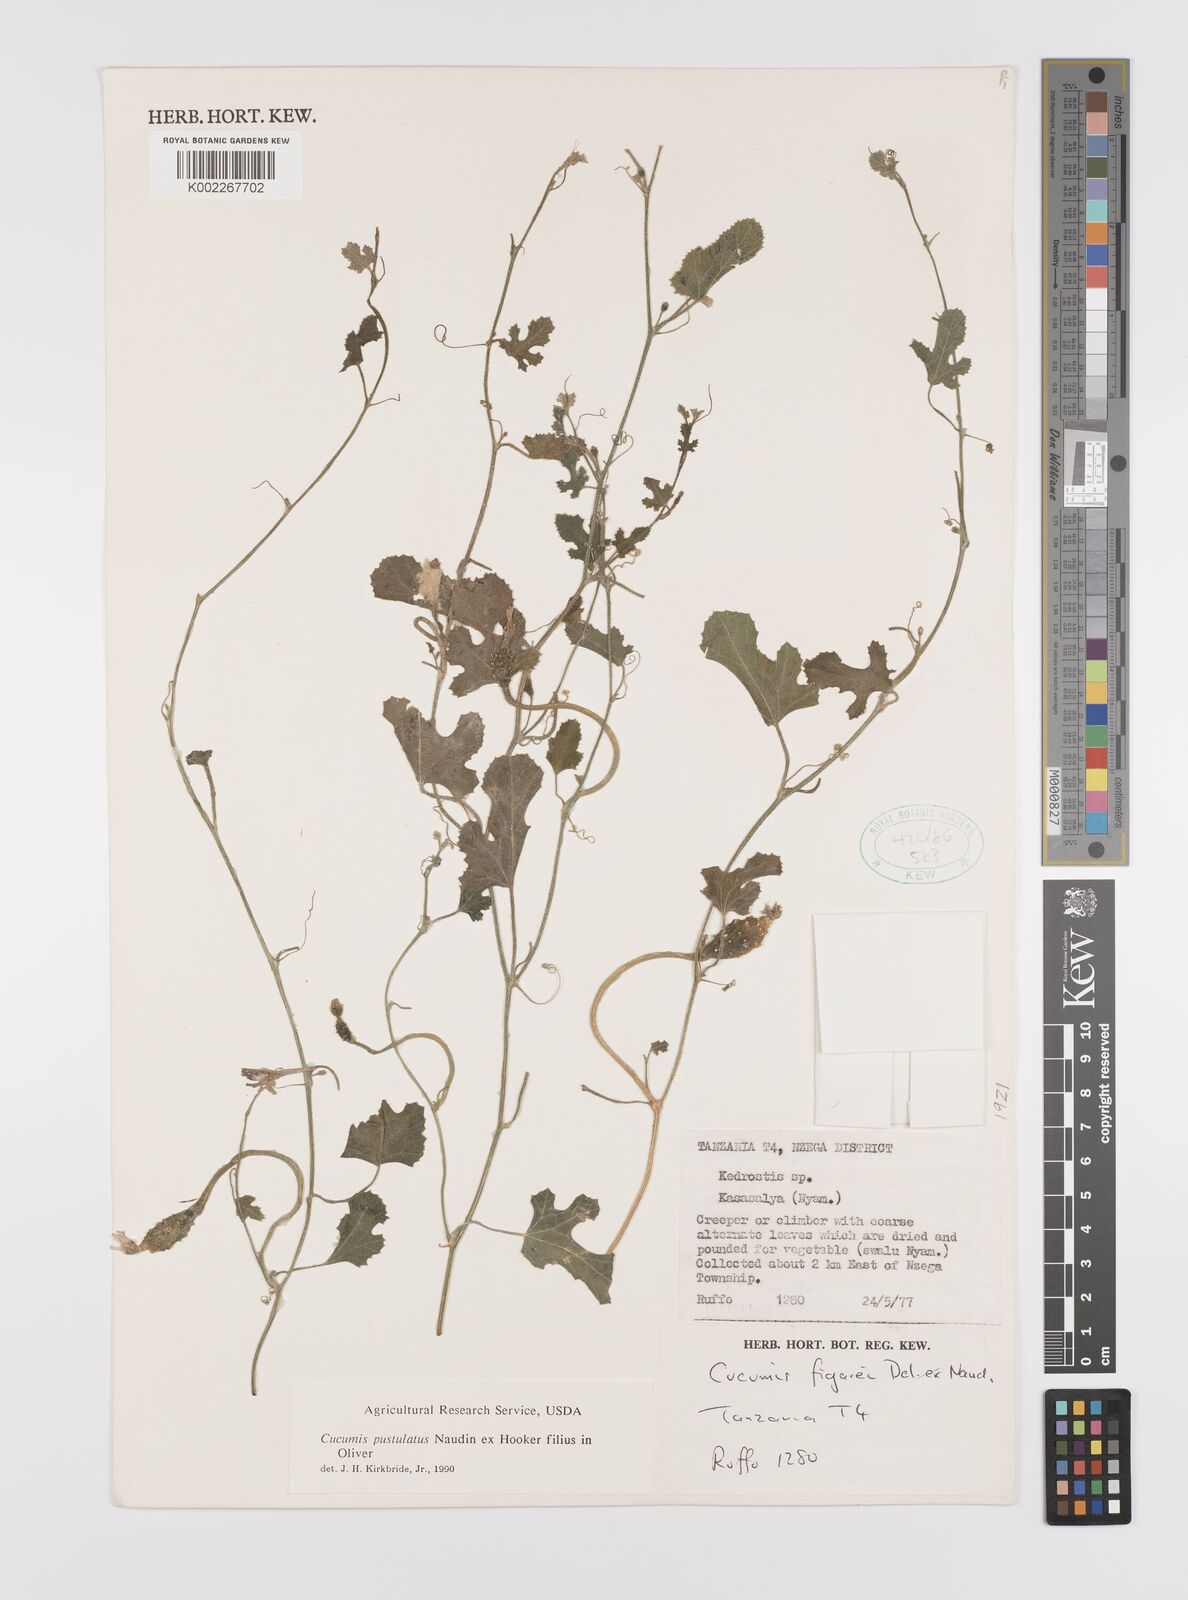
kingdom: Plantae
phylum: Tracheophyta
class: Magnoliopsida
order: Cucurbitales
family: Cucurbitaceae
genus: Cucumis
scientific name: Cucumis pustulatus
